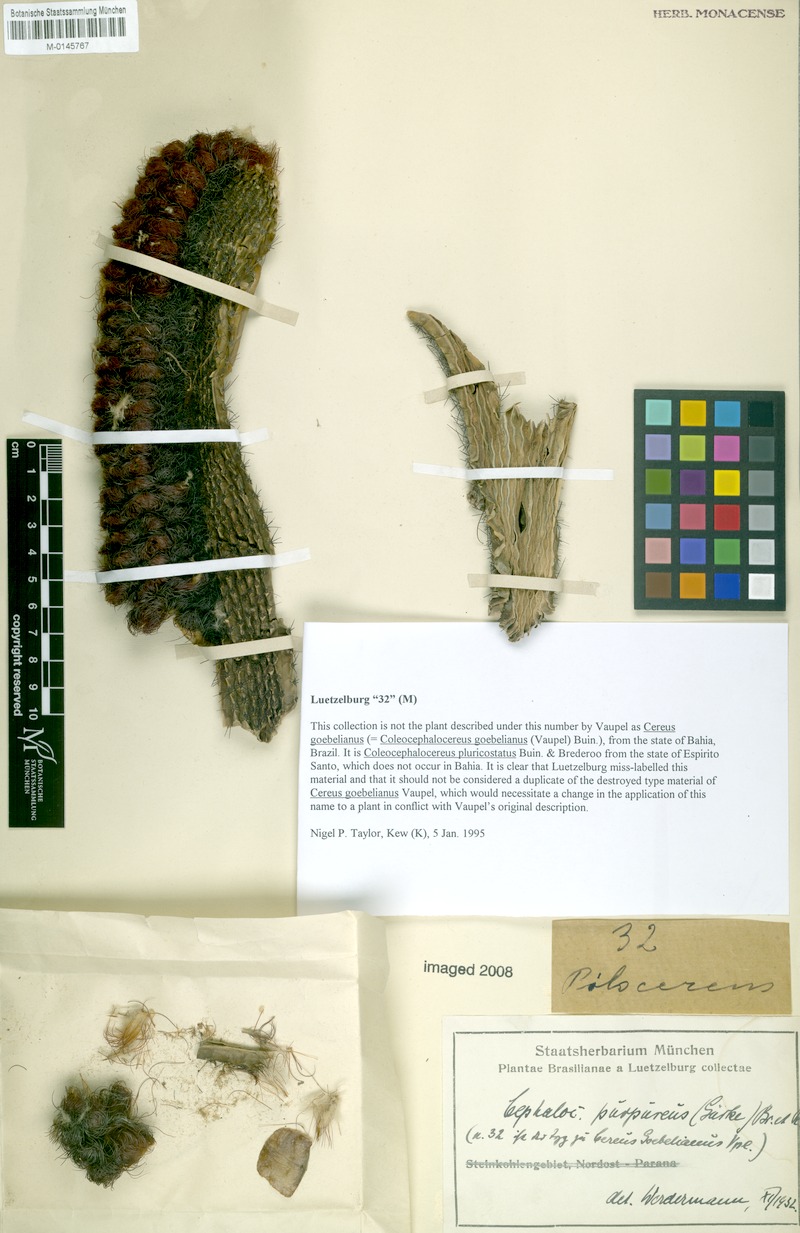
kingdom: Plantae
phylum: Tracheophyta
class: Magnoliopsida
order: Caryophyllales
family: Cactaceae
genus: Coleocephalocereus
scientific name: Coleocephalocereus pluricostatus
